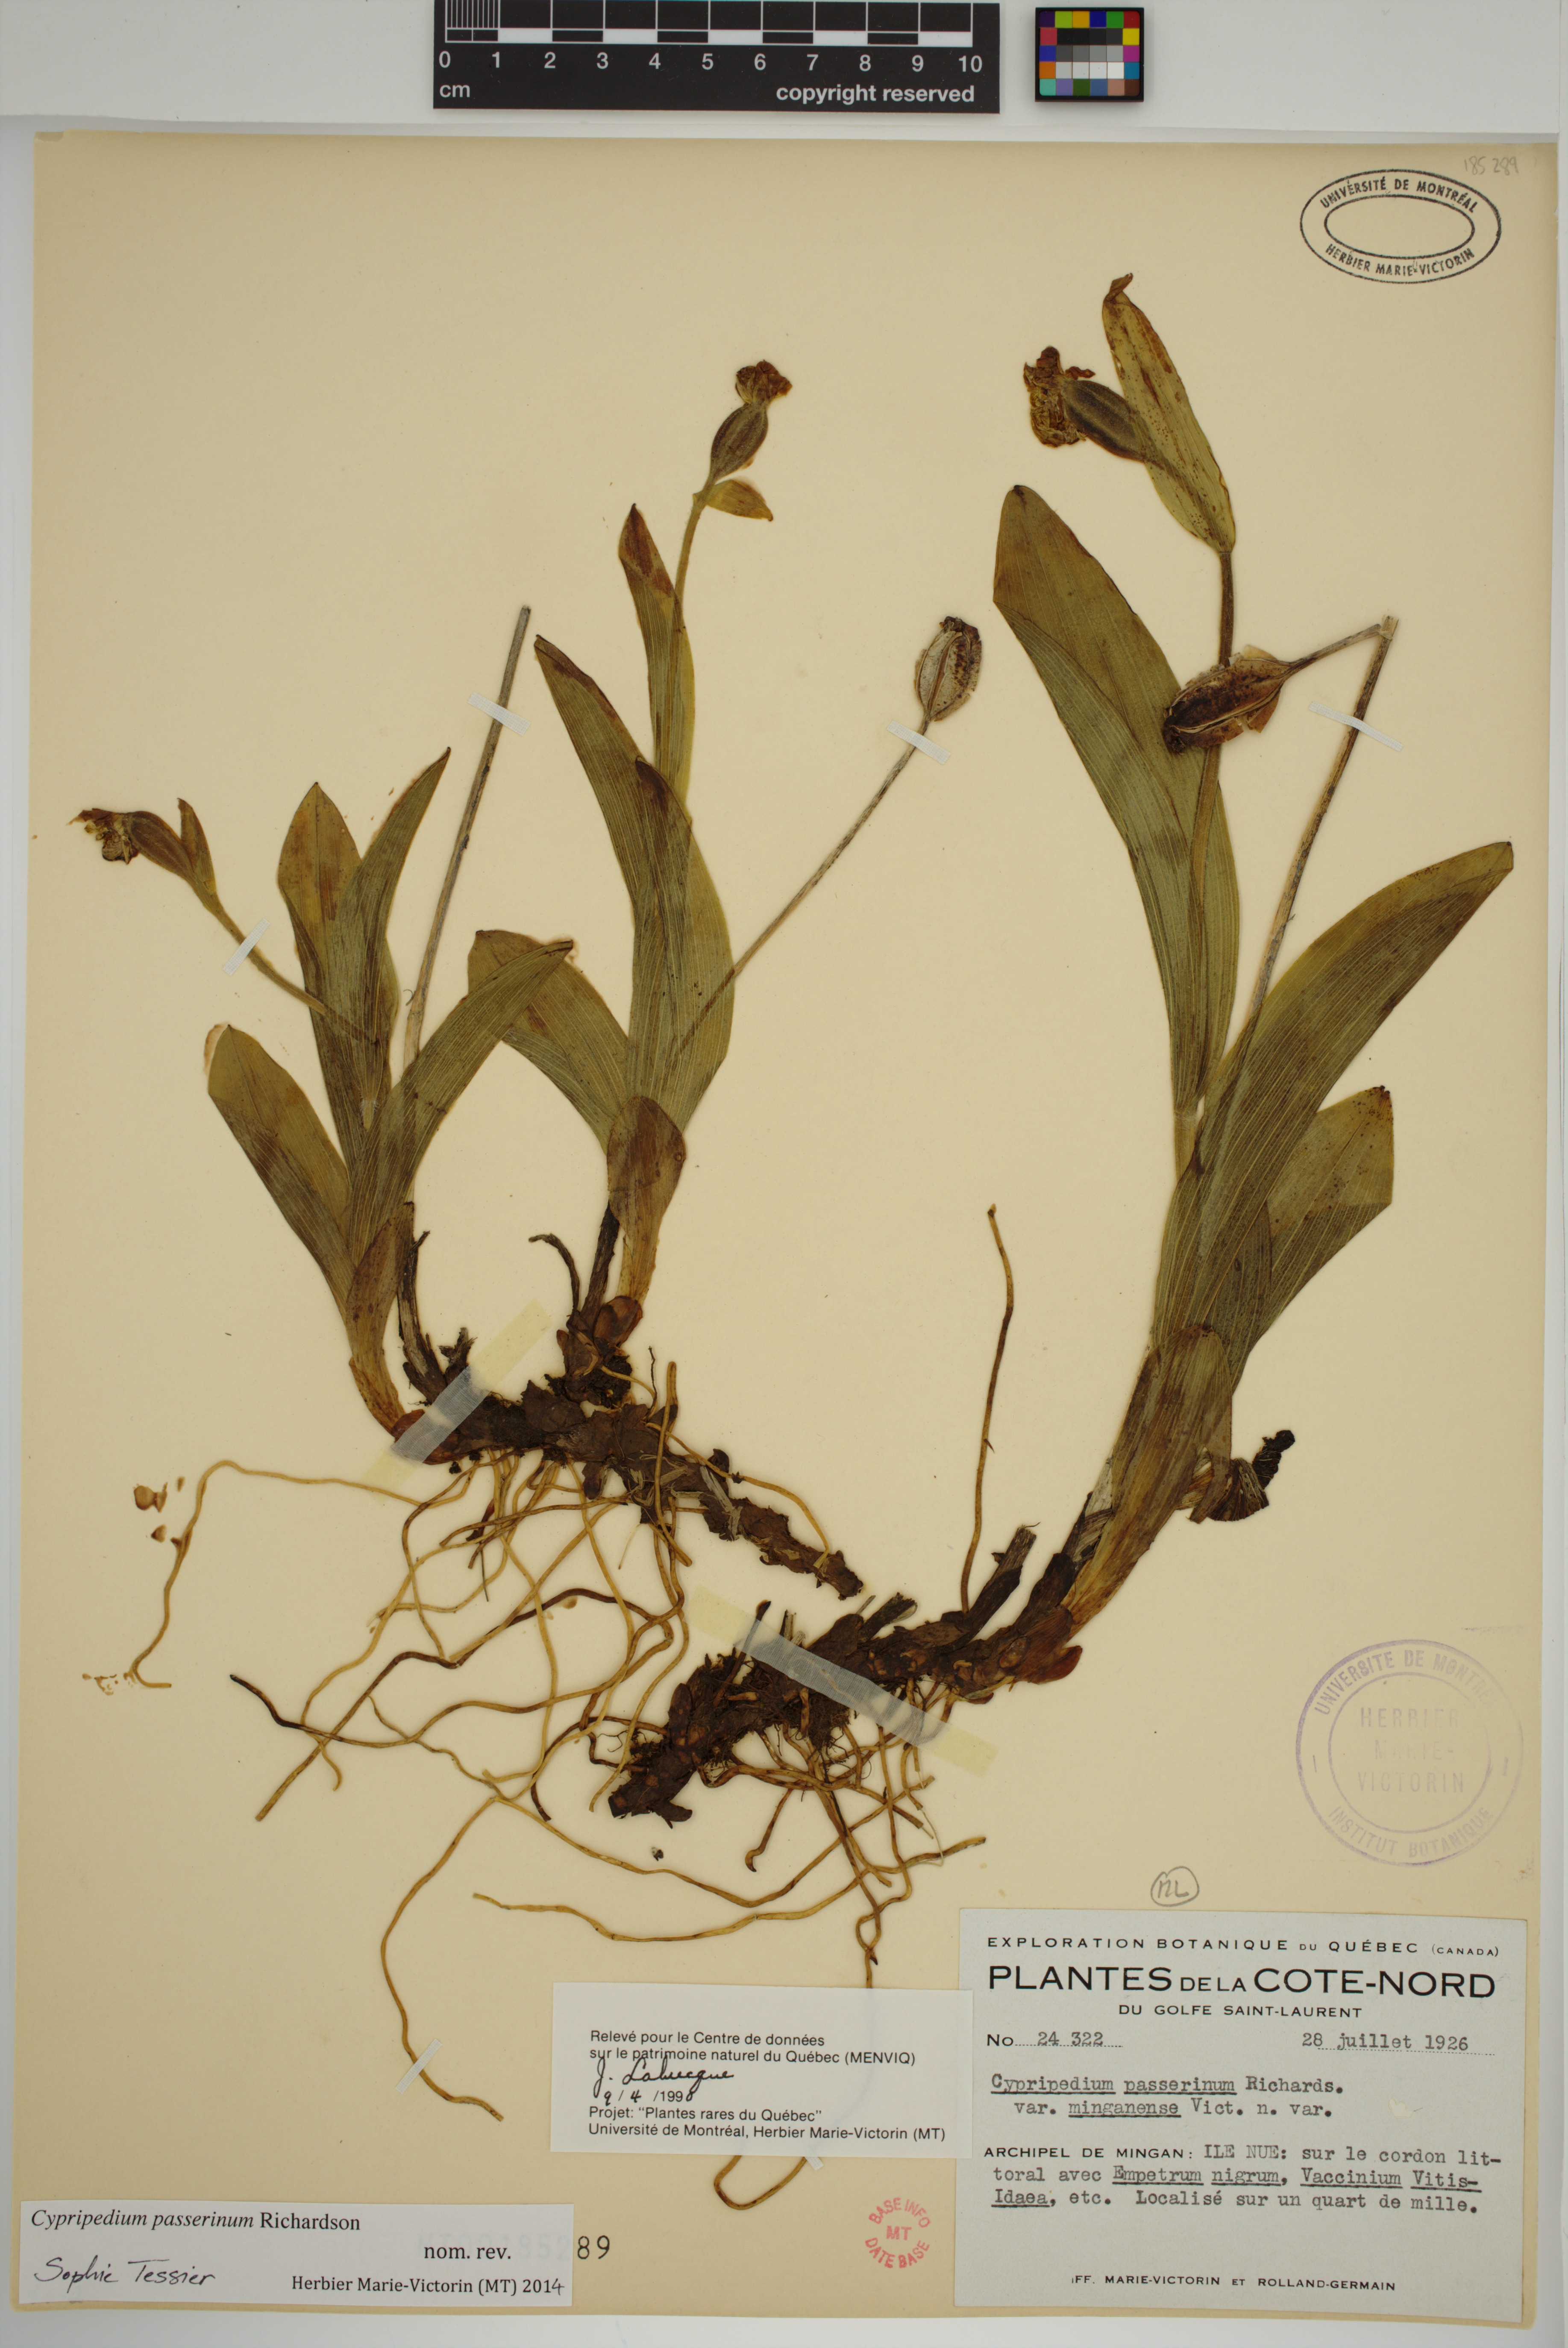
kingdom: Plantae
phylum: Tracheophyta
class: Liliopsida
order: Asparagales
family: Orchidaceae
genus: Cypripedium
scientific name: Cypripedium passerinum
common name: Sparrow's-egg lady's-slipper
